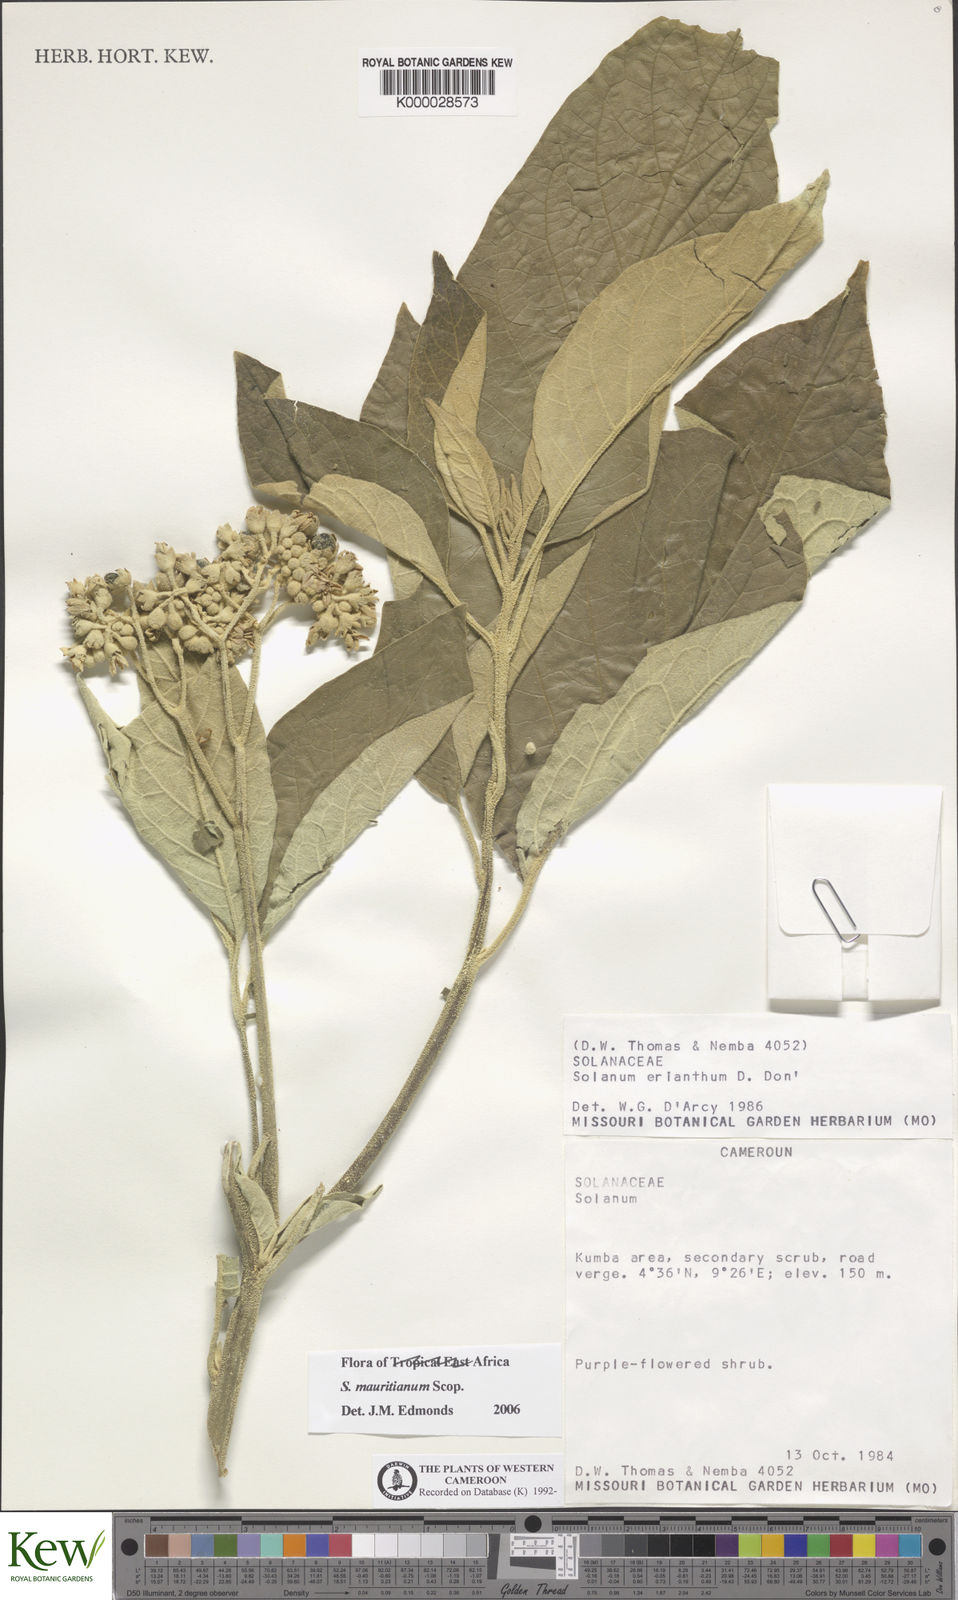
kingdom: Plantae
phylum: Tracheophyta
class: Magnoliopsida
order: Solanales
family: Solanaceae
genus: Solanum
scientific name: Solanum mauritianum
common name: Earleaf nightshade
